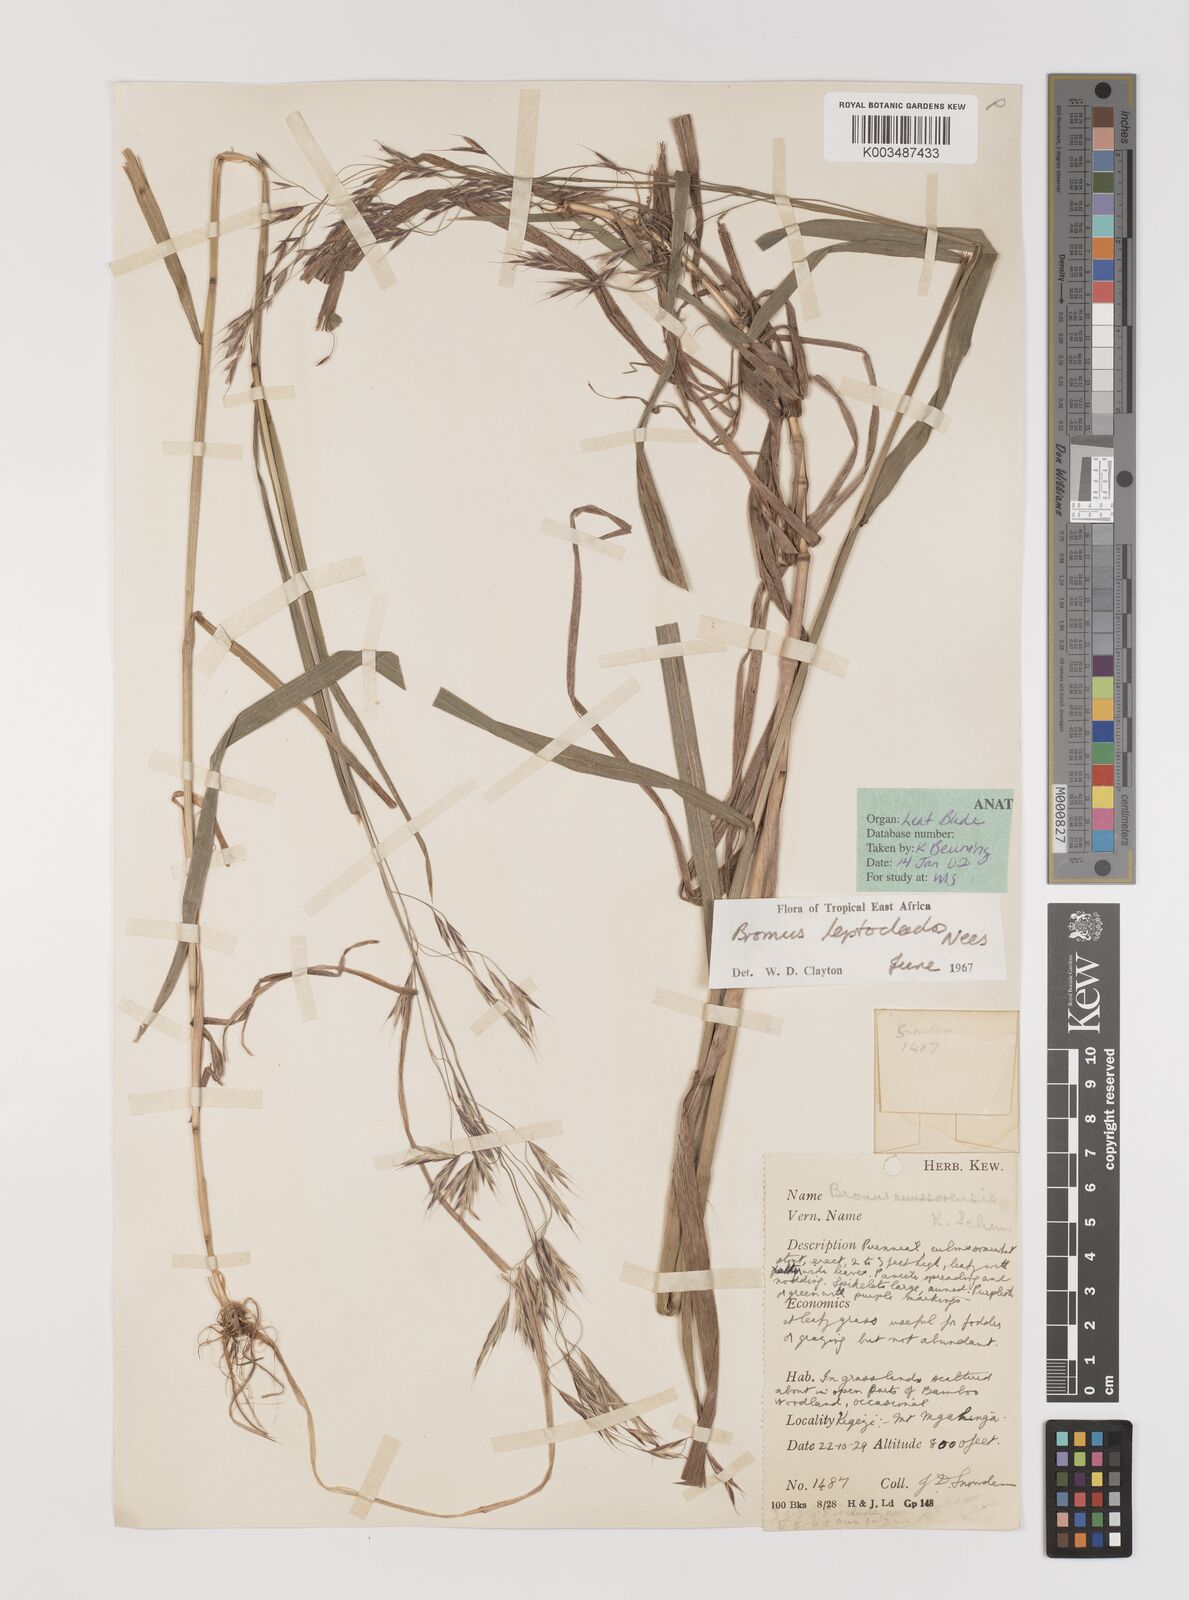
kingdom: Plantae
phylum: Tracheophyta
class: Liliopsida
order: Poales
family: Poaceae
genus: Bromus
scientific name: Bromus leptoclados
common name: Mountain bromegrass
